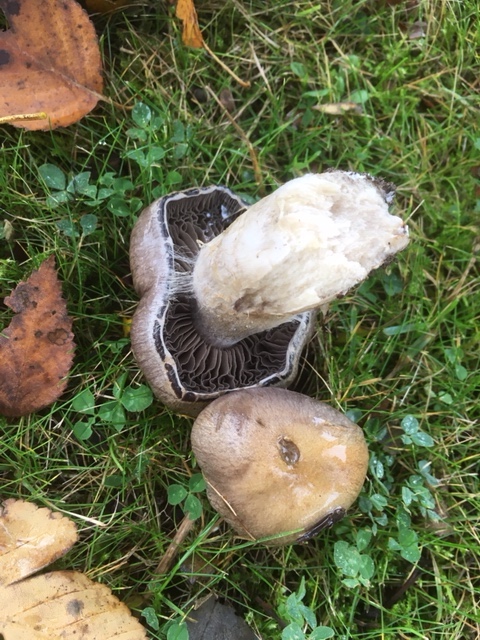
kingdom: Fungi
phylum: Basidiomycota
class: Agaricomycetes
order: Agaricales
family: Cortinariaceae
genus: Cortinarius
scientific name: Cortinarius
